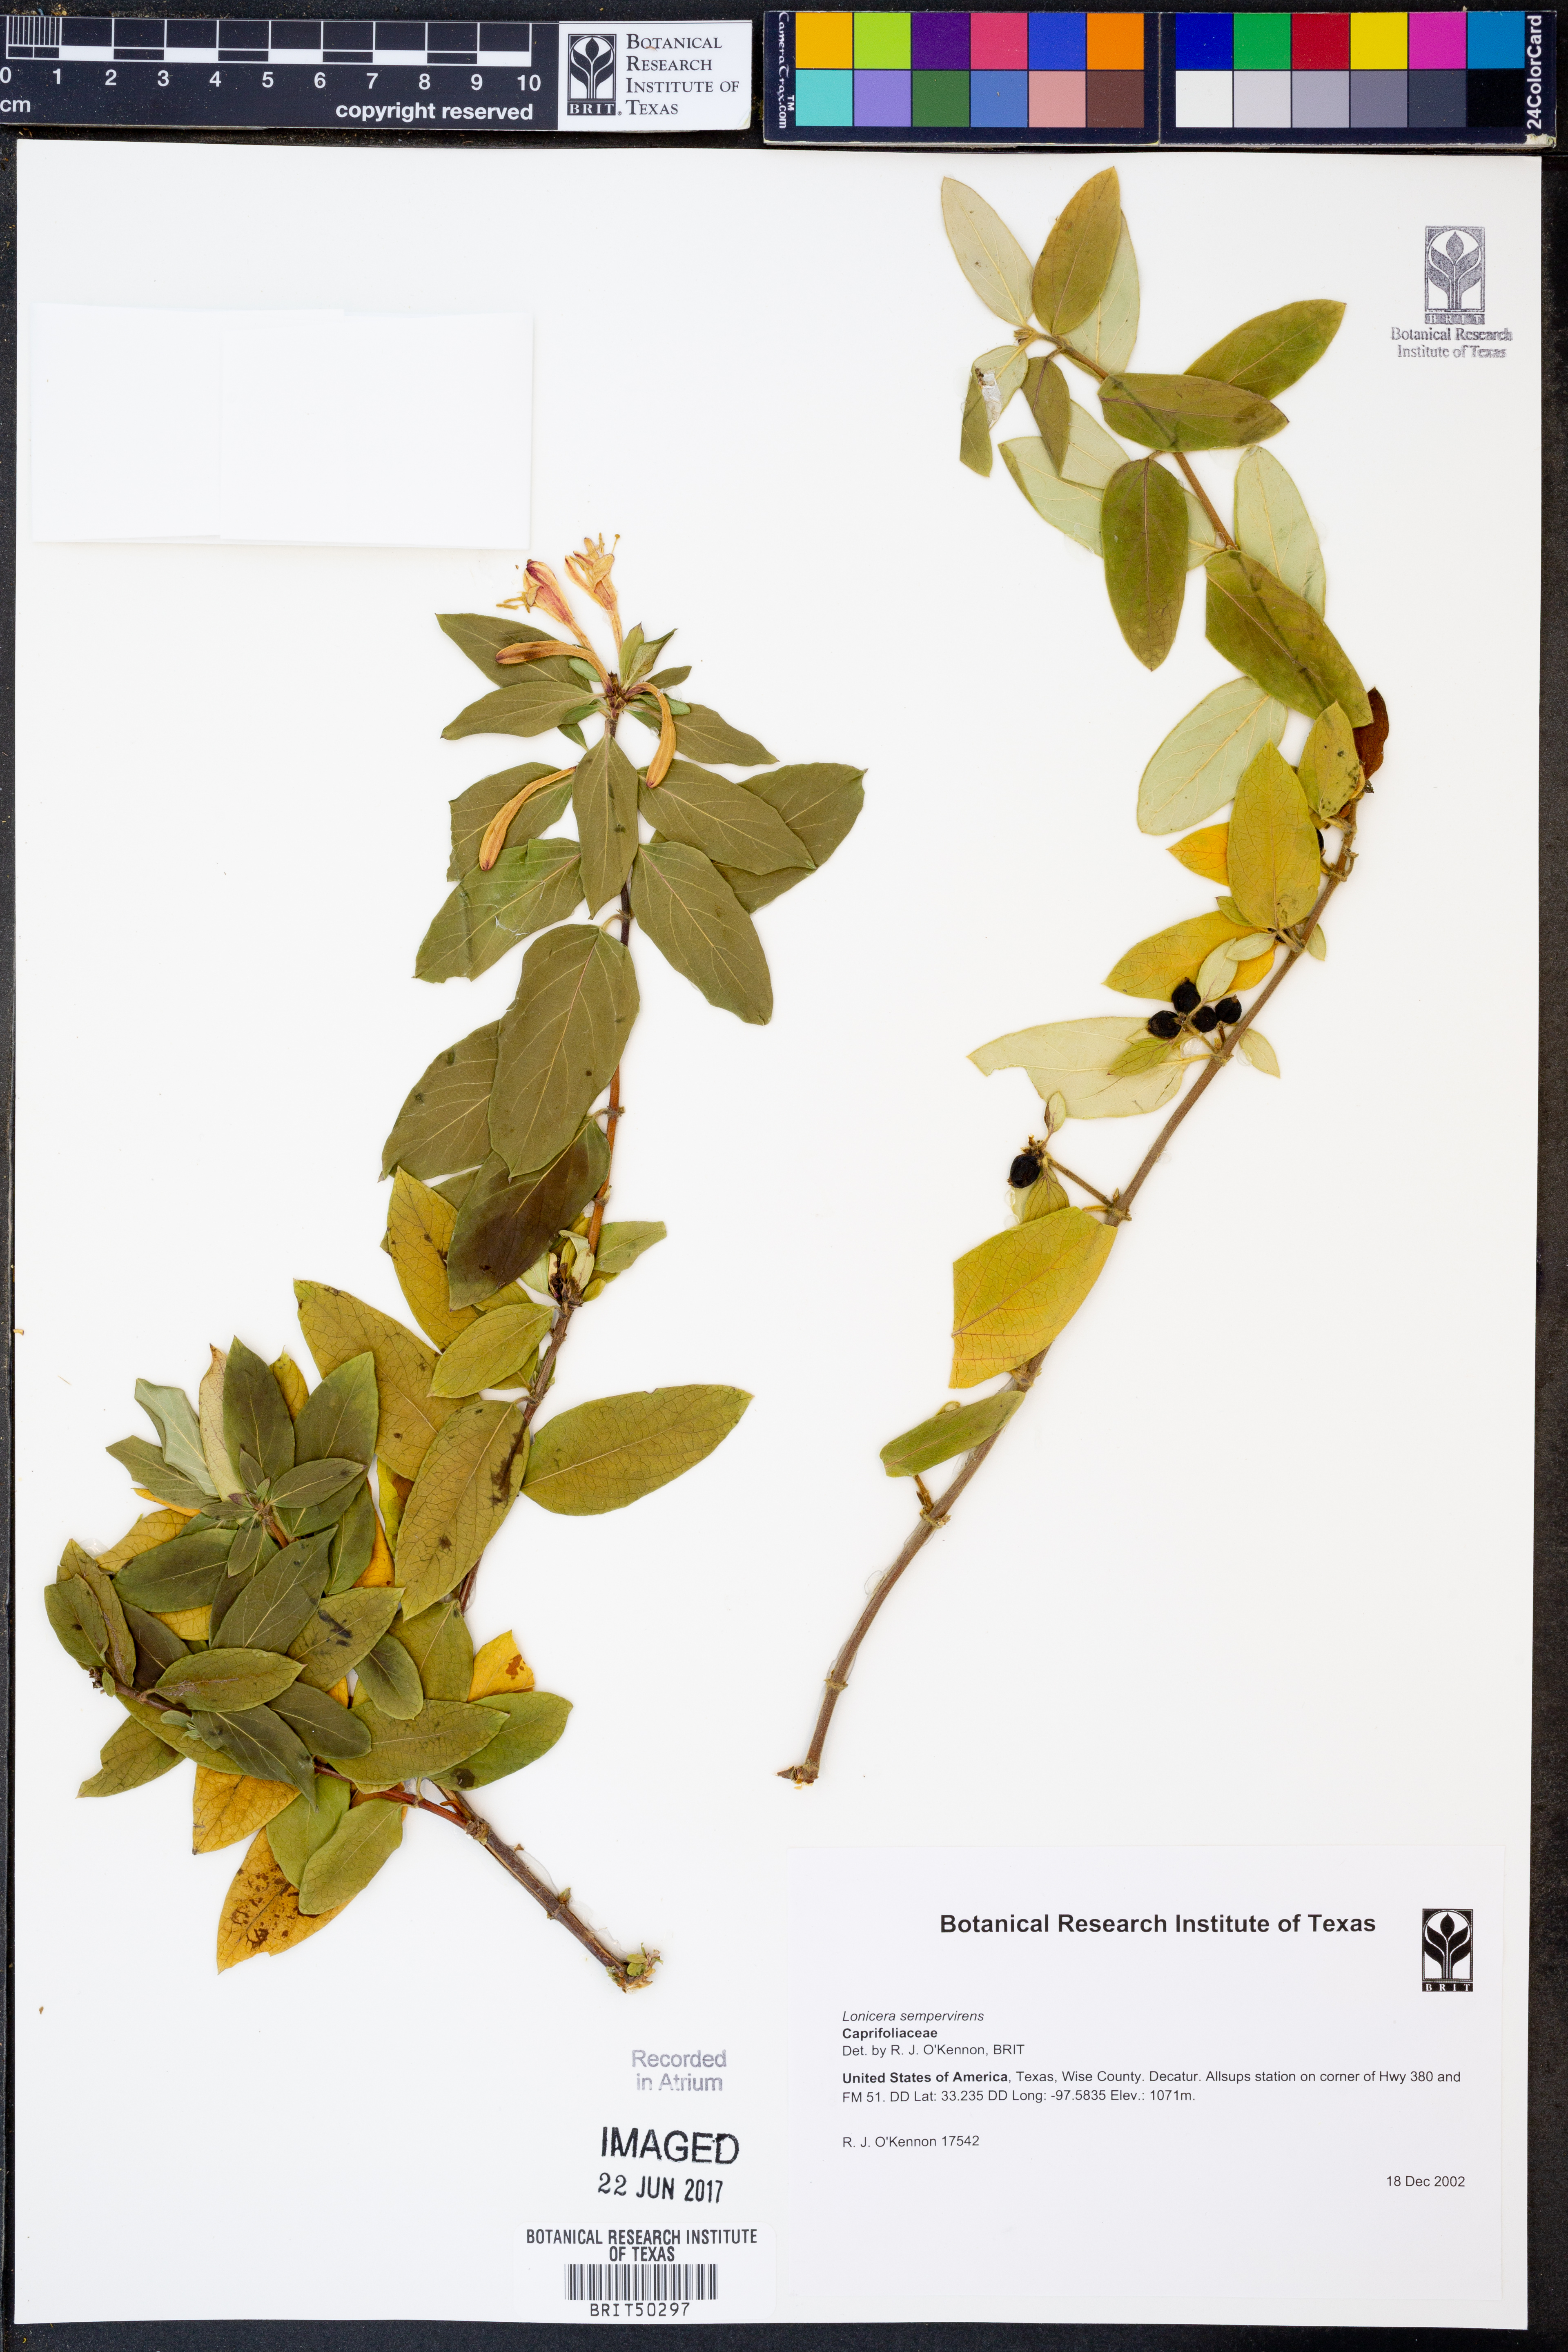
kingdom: Plantae
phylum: Tracheophyta
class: Magnoliopsida
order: Dipsacales
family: Caprifoliaceae
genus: Lonicera
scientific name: Lonicera sempervirens
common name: Coral honeysuckle
